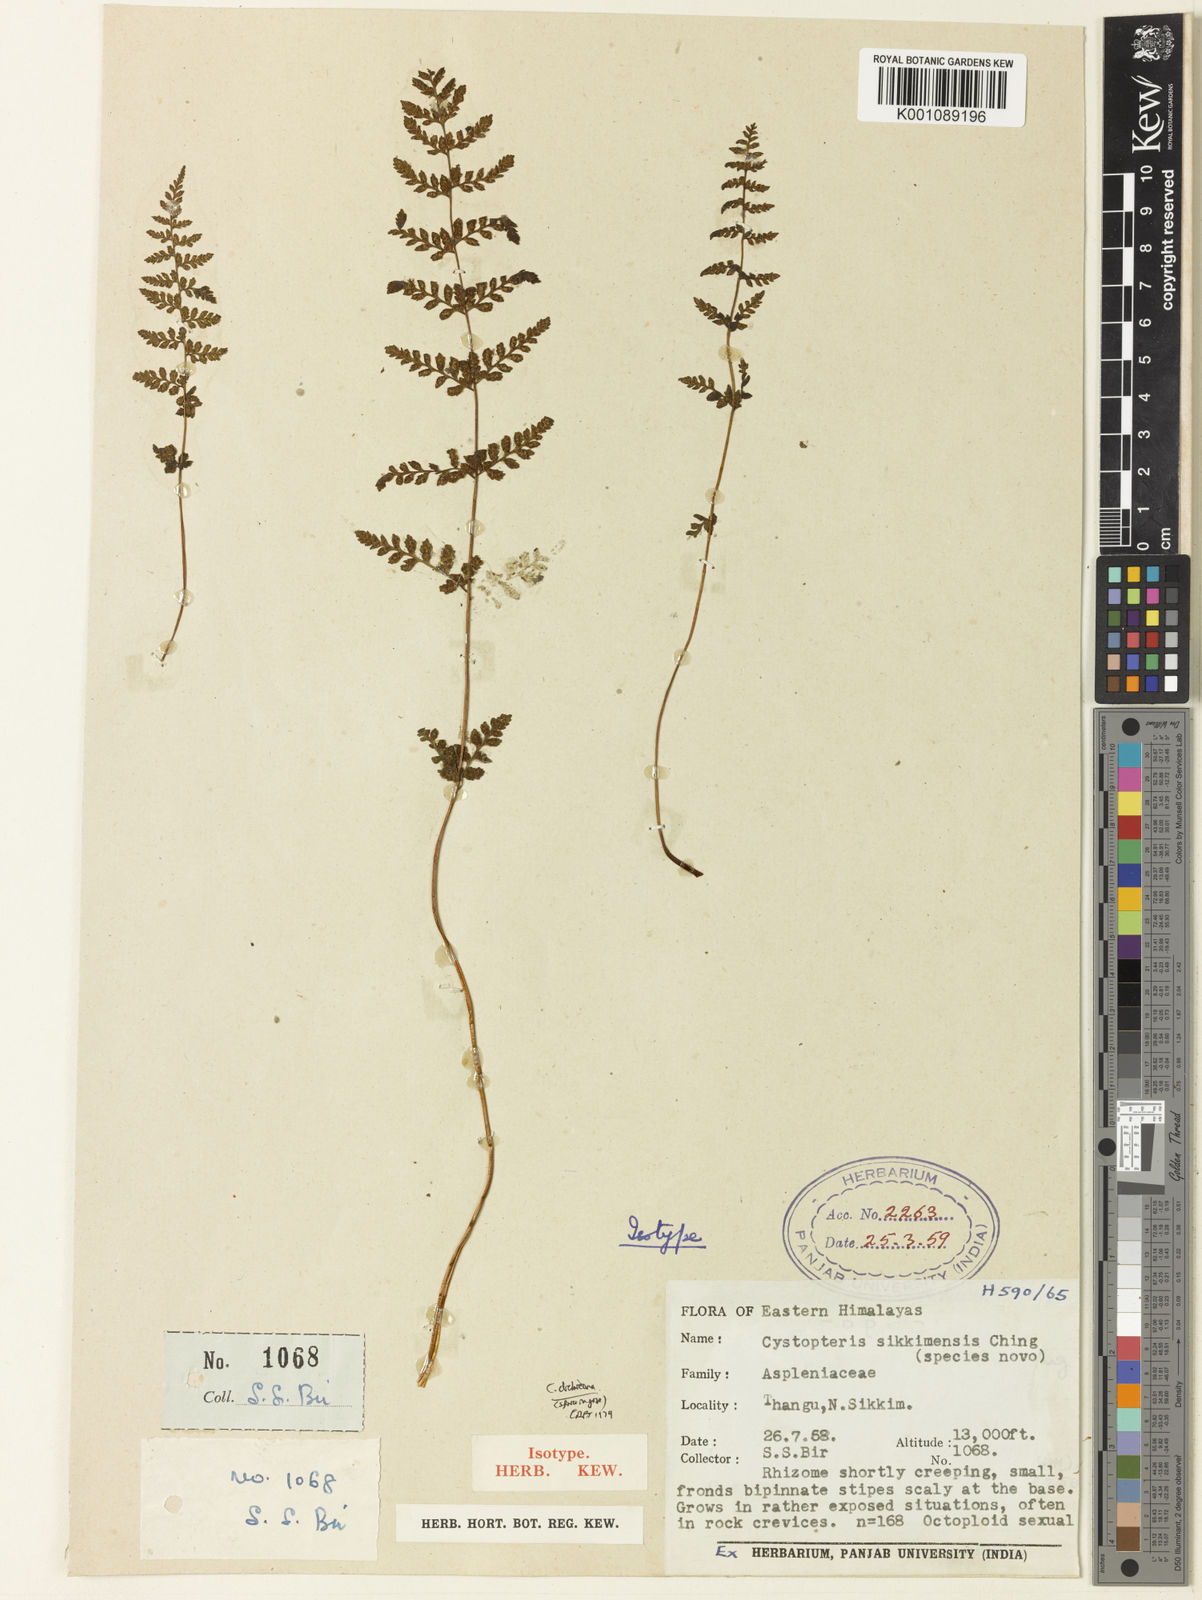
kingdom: Plantae
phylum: Tracheophyta
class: Polypodiopsida
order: Polypodiales
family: Cystopteridaceae
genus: Cystopteris
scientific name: Cystopteris dickieana
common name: Dickie's bladder-fern
